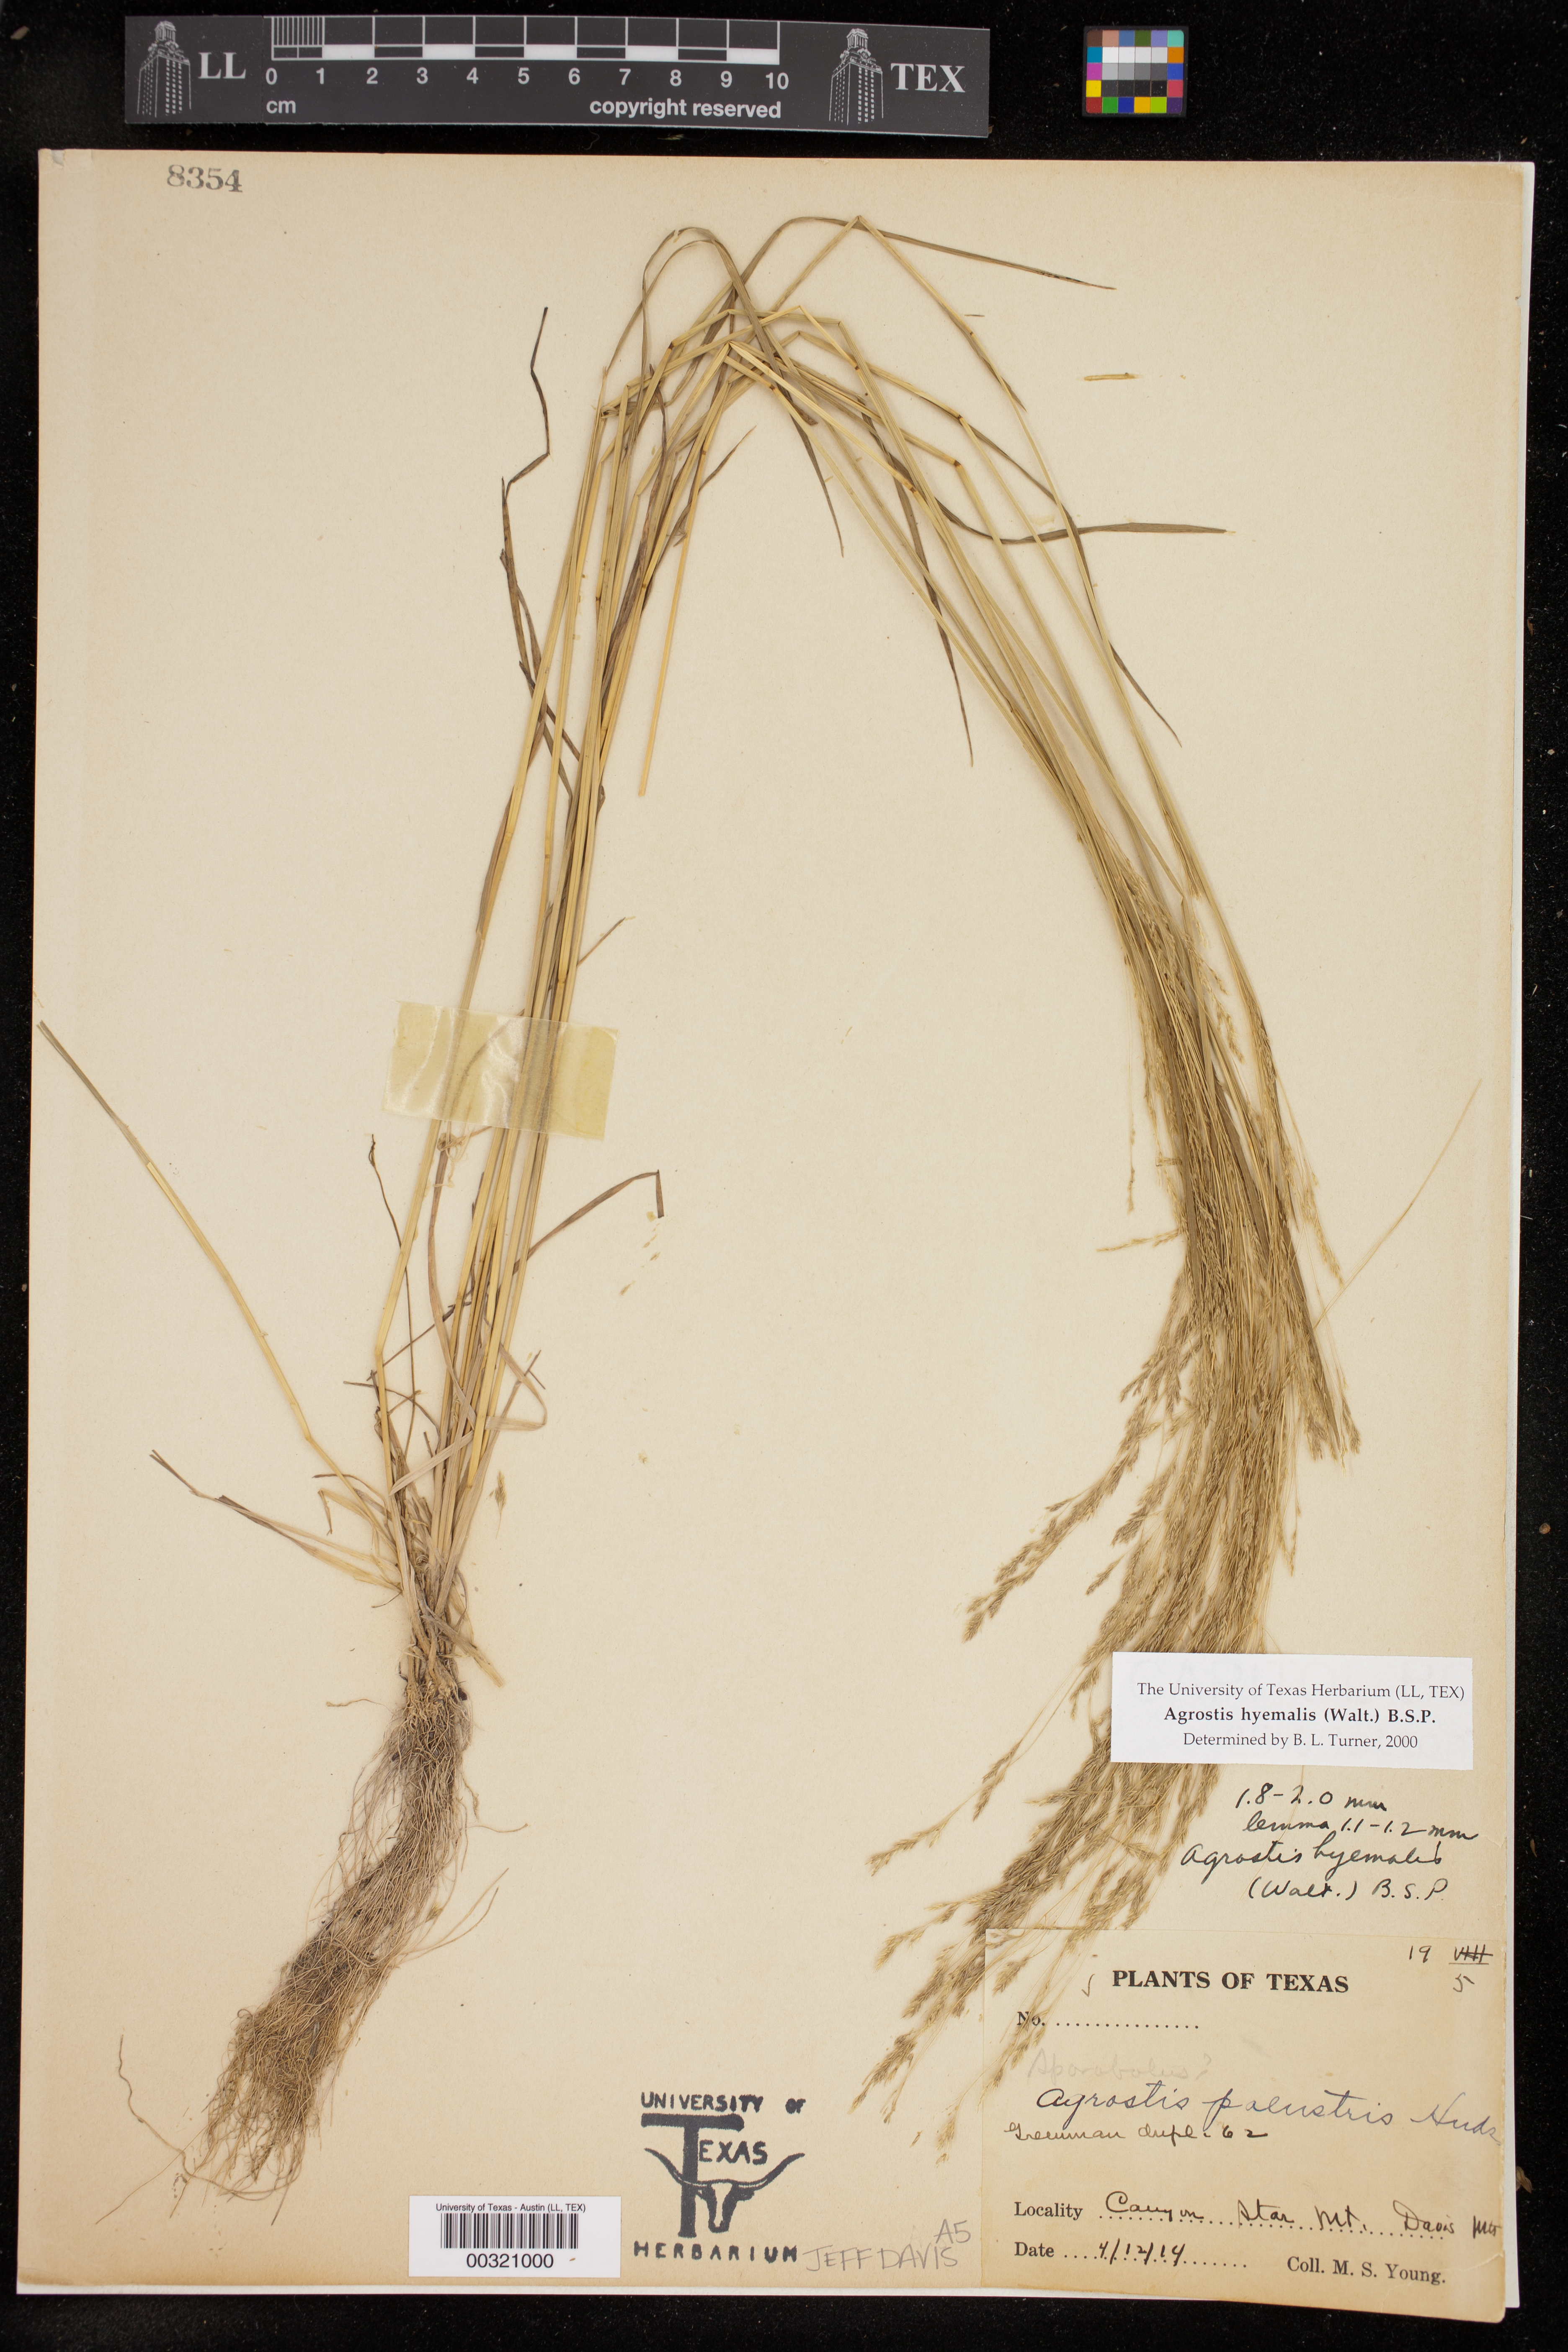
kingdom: Plantae
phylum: Tracheophyta
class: Liliopsida
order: Poales
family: Poaceae
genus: Agrostis
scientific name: Agrostis hyemalis
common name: Small bent
